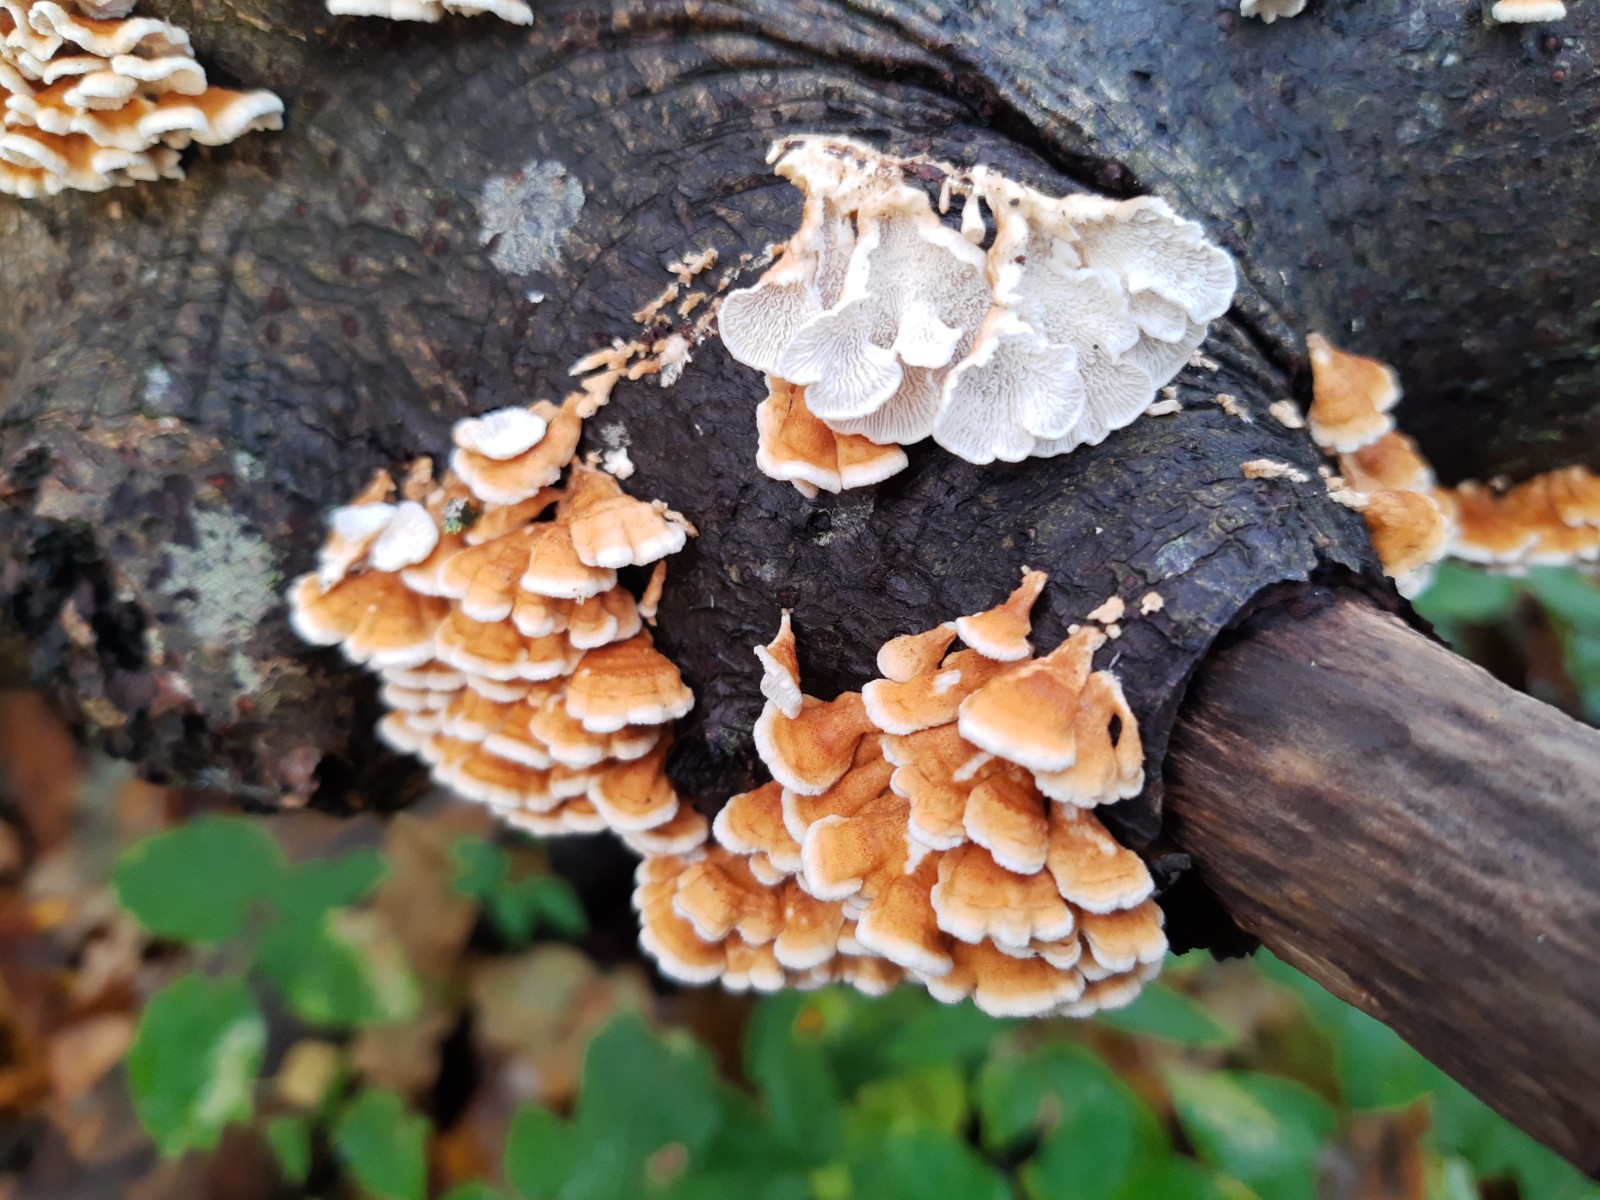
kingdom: Fungi
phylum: Basidiomycota
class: Agaricomycetes
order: Amylocorticiales
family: Amylocorticiaceae
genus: Plicaturopsis
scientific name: Plicaturopsis crispa
